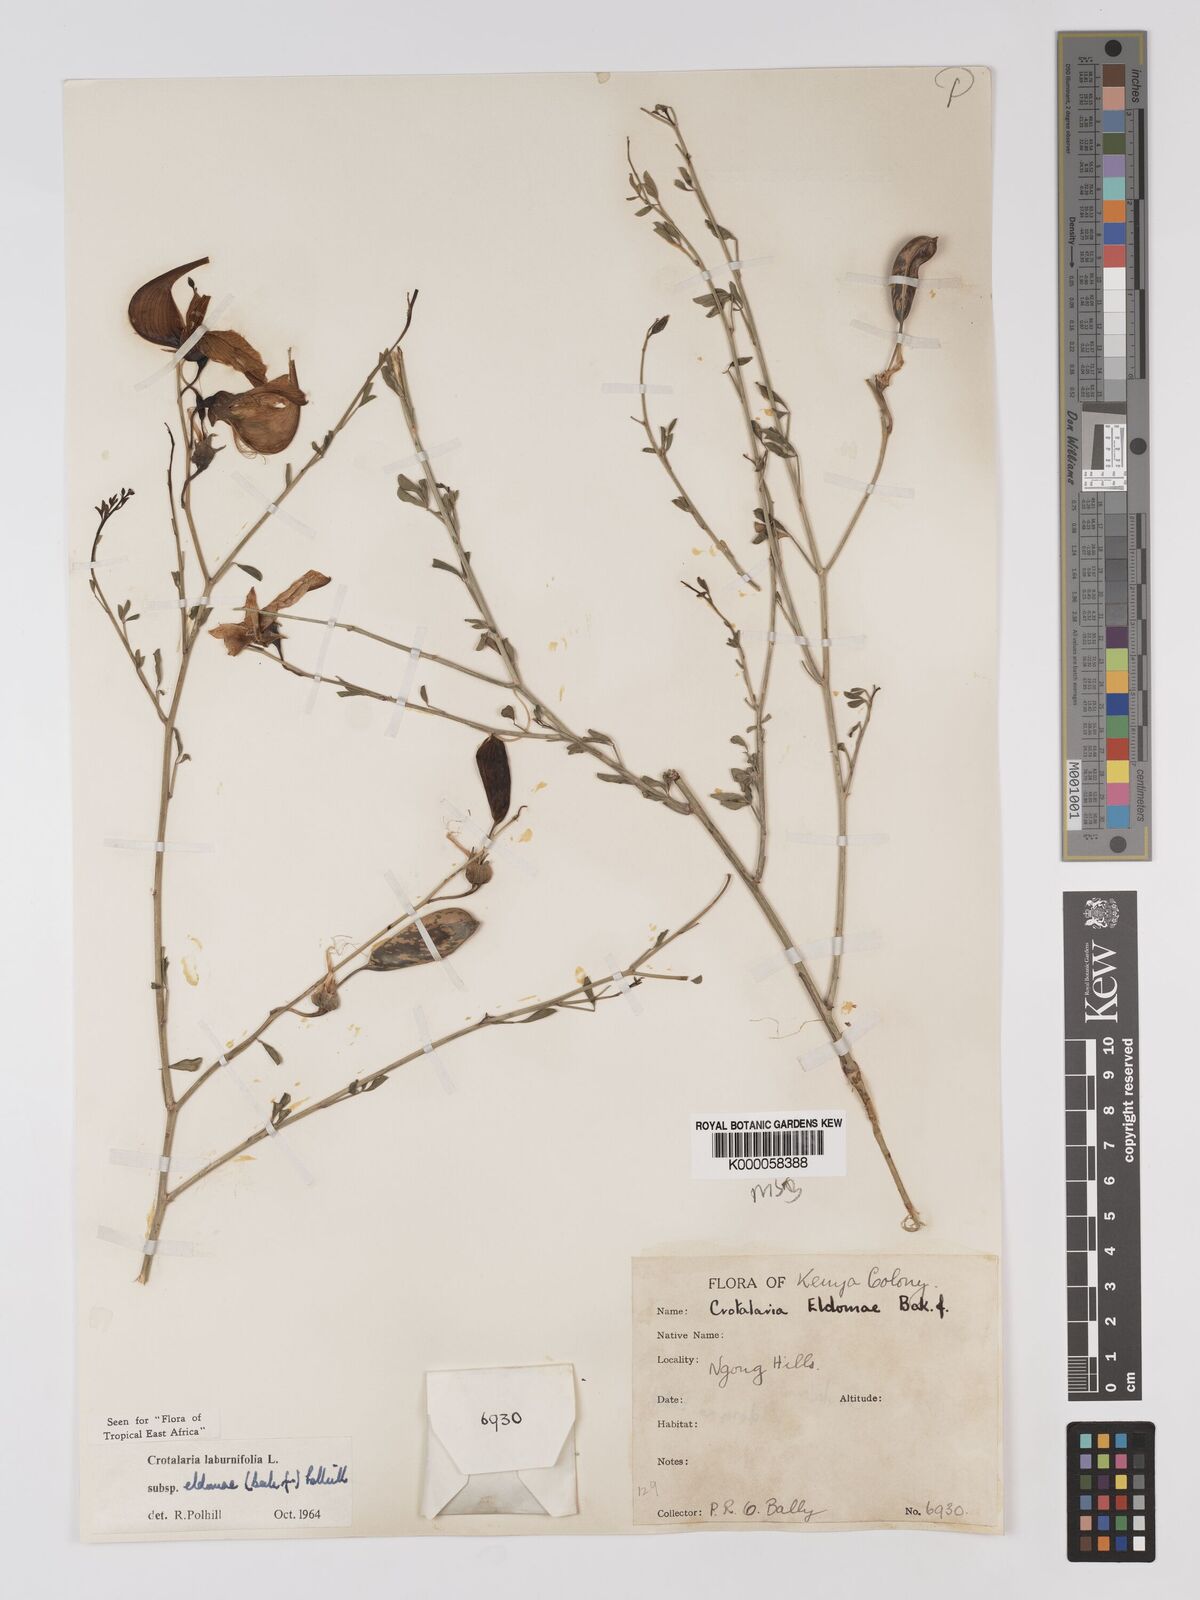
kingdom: Plantae
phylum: Tracheophyta
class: Magnoliopsida
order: Fabales
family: Fabaceae
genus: Crotalaria
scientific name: Crotalaria laburnifolia
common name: Birdflower
